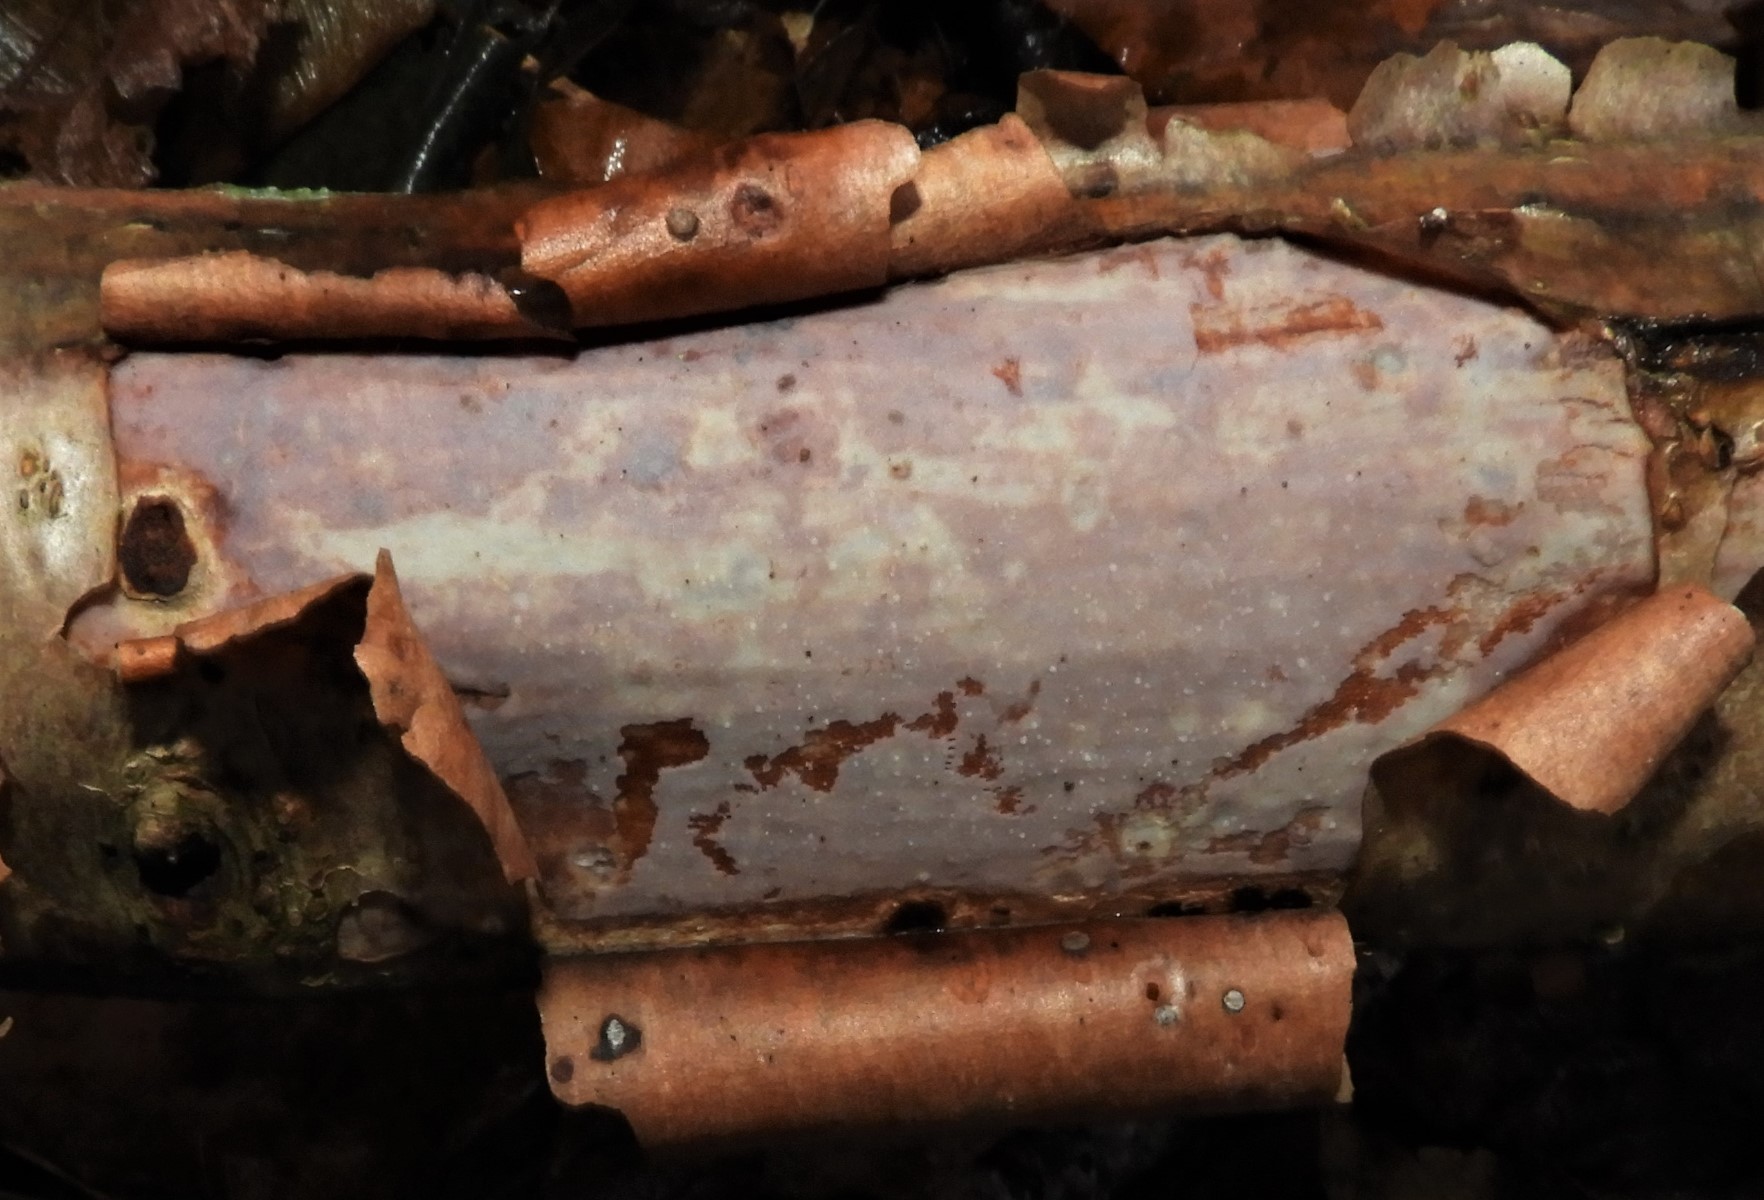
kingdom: Fungi
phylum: Basidiomycota
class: Agaricomycetes
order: Corticiales
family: Vuilleminiaceae
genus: Vuilleminia
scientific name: Vuilleminia coryli
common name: hassel-barksprænger
